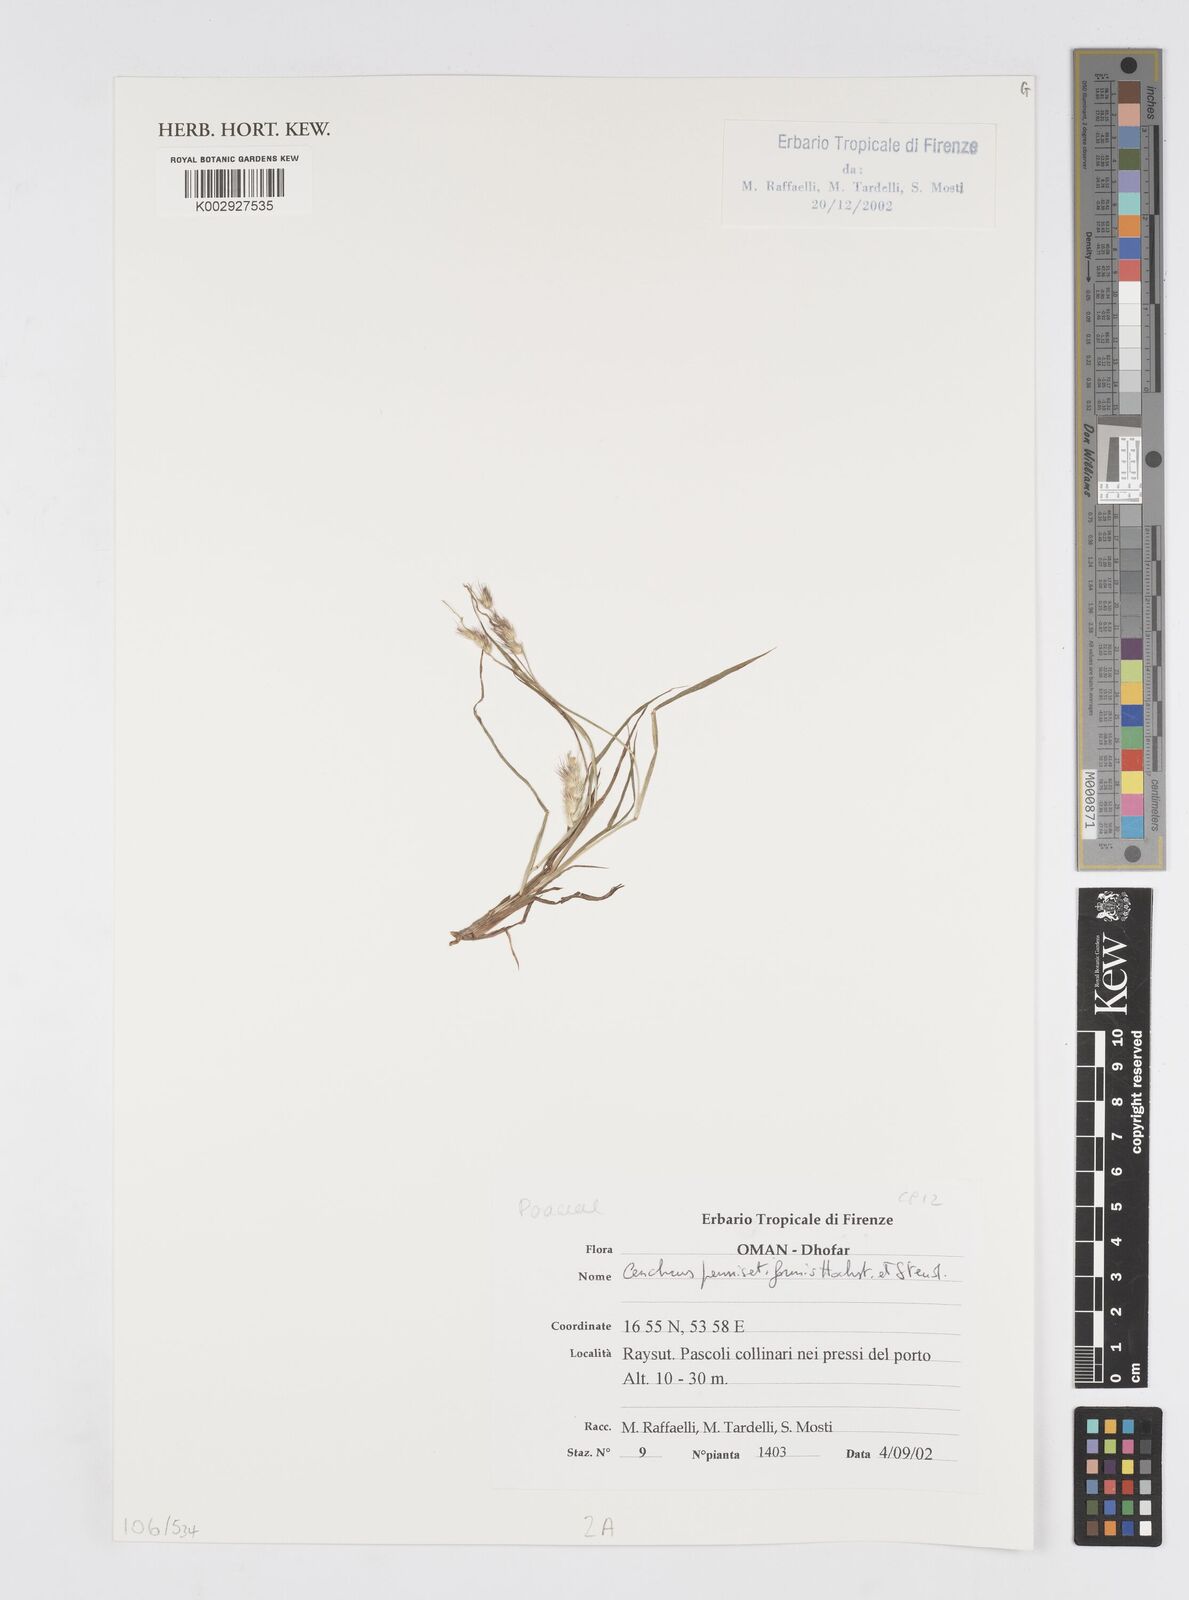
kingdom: Plantae
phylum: Tracheophyta
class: Liliopsida
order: Poales
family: Poaceae
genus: Cenchrus
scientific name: Cenchrus pennisetiformis
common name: Cloncurry
